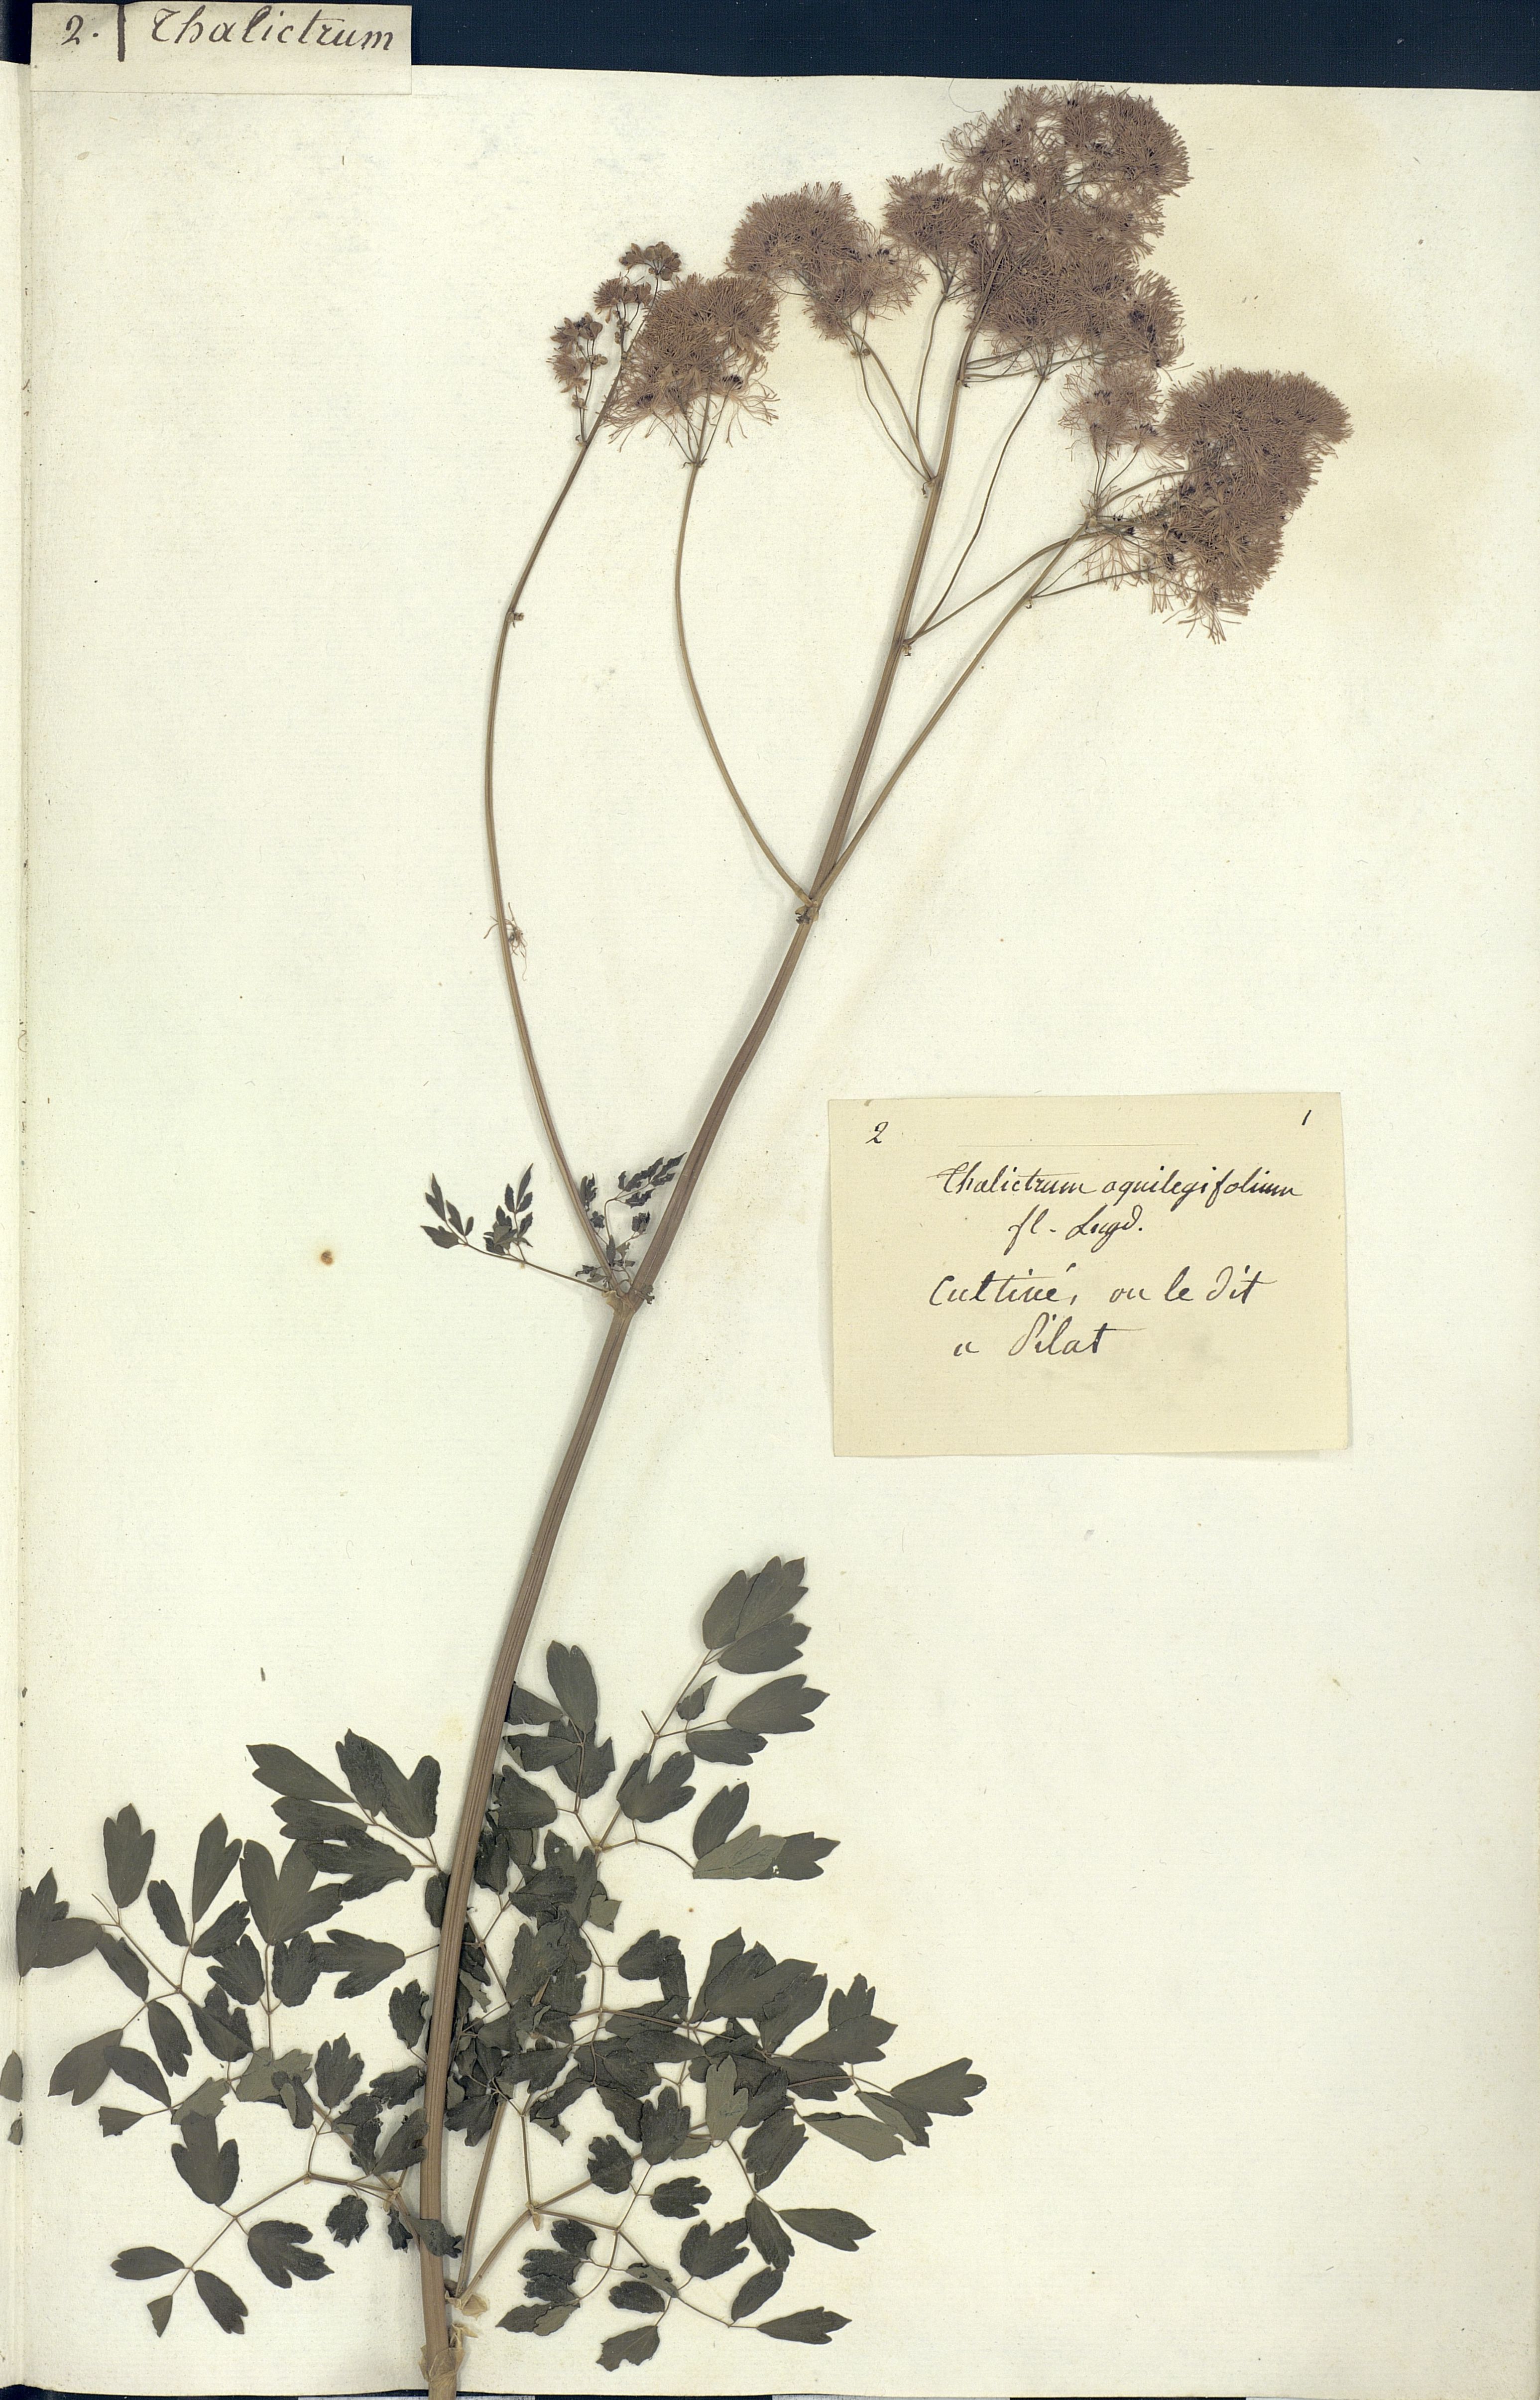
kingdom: Plantae
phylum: Tracheophyta
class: Magnoliopsida
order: Ranunculales
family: Ranunculaceae
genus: Thalictrum
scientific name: Thalictrum aquilegiifolium
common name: French meadow-rue
